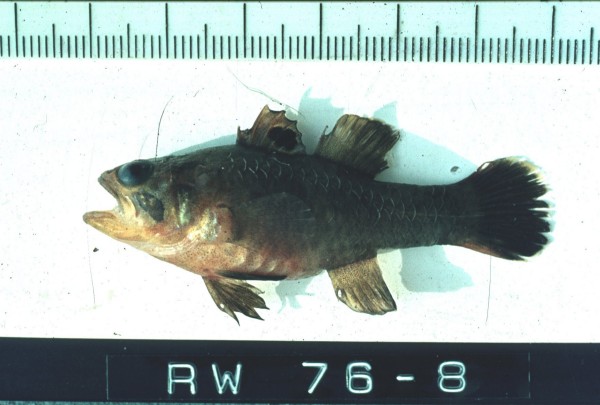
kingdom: Animalia
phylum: Chordata
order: Perciformes
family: Apogonidae
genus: Apogonichthys
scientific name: Apogonichthys ocellatus
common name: Ocellated cardinalfish
